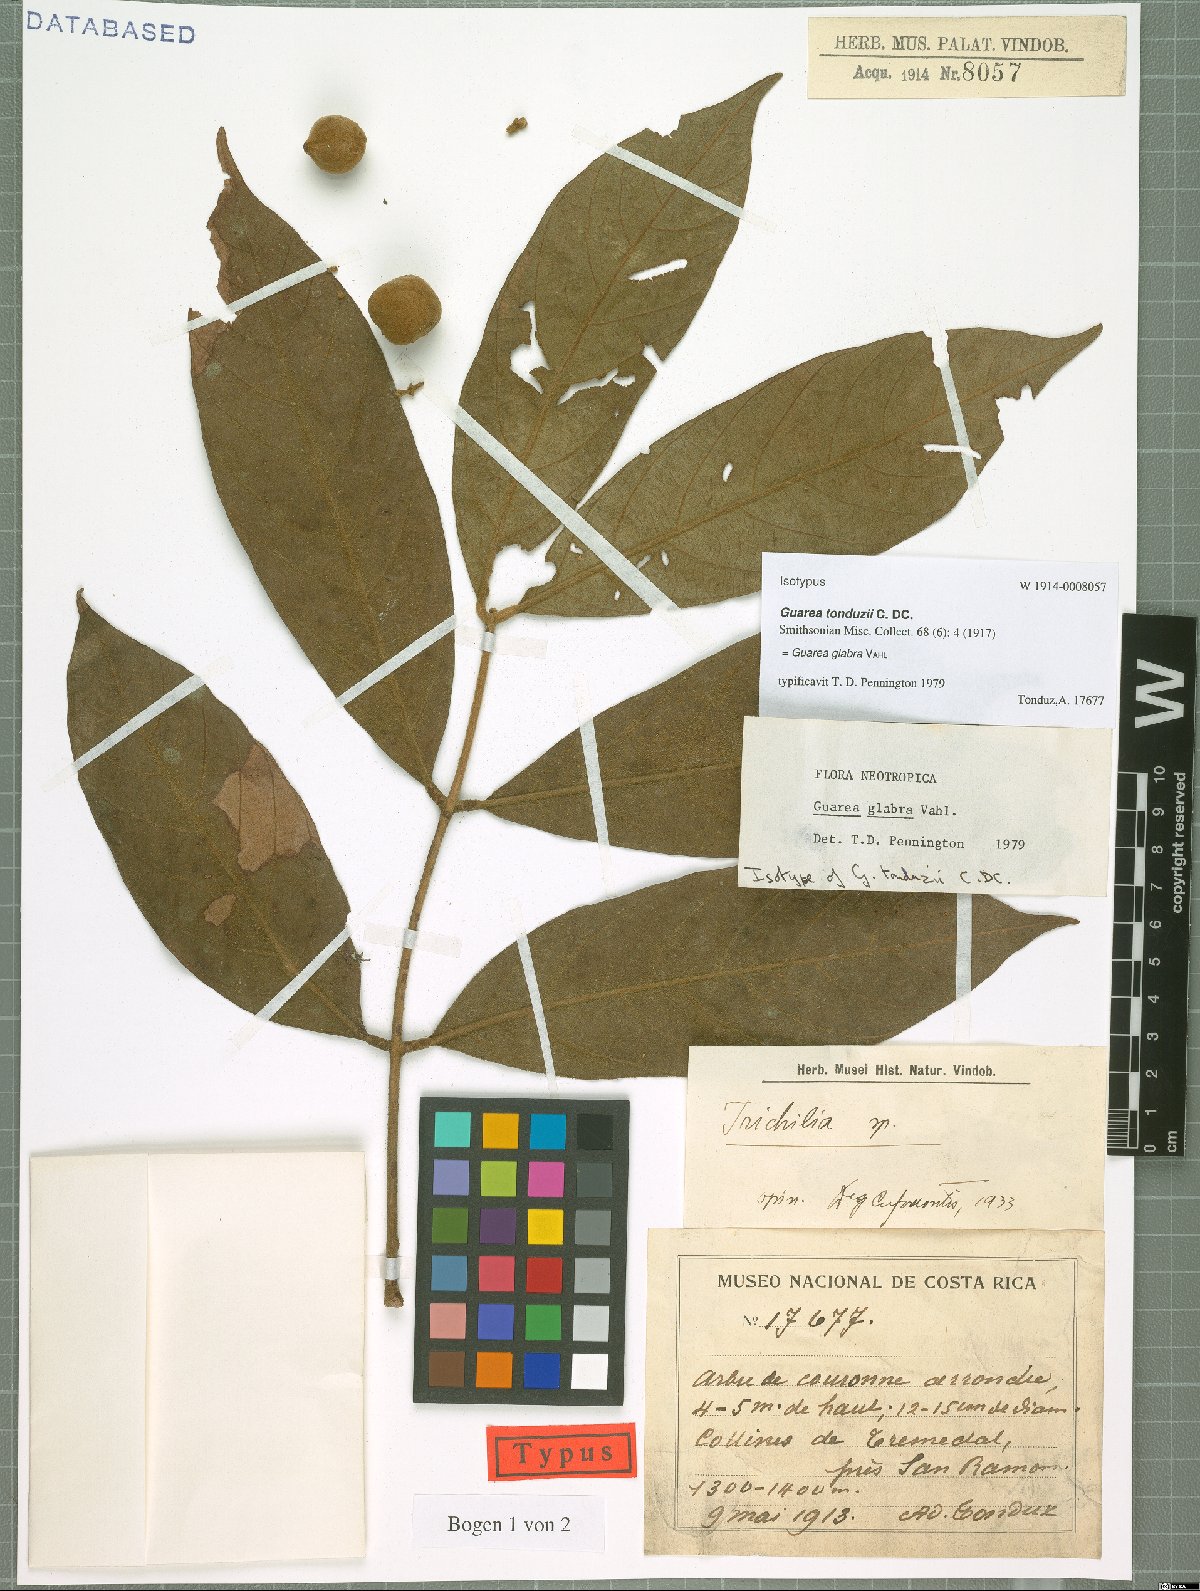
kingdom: Plantae
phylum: Tracheophyta
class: Magnoliopsida
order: Sapindales
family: Meliaceae
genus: Guarea
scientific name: Guarea glabra
